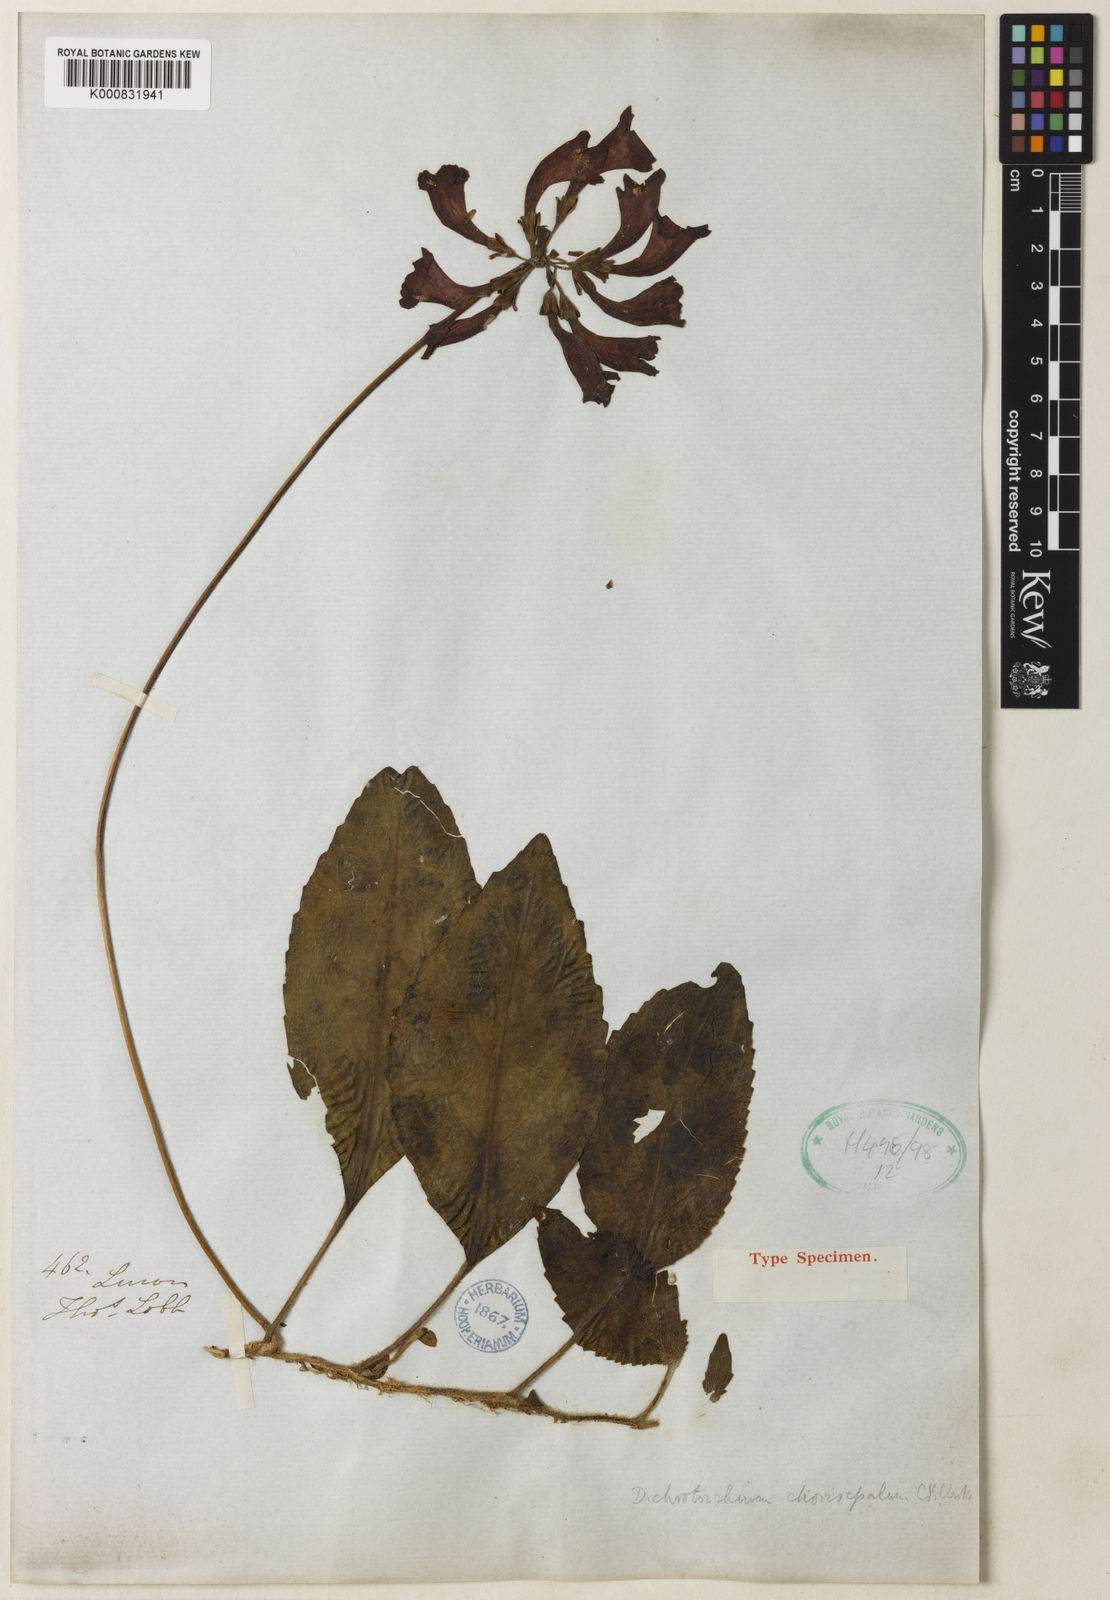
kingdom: Plantae
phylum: Tracheophyta
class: Magnoliopsida
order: Lamiales
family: Gesneriaceae
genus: Agalmyla
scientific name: Agalmyla chorisepala
